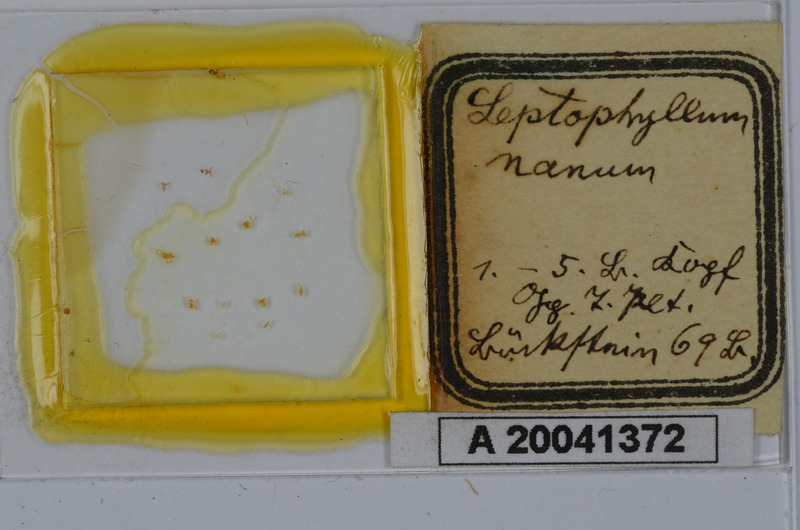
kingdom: Animalia
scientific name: Animalia
